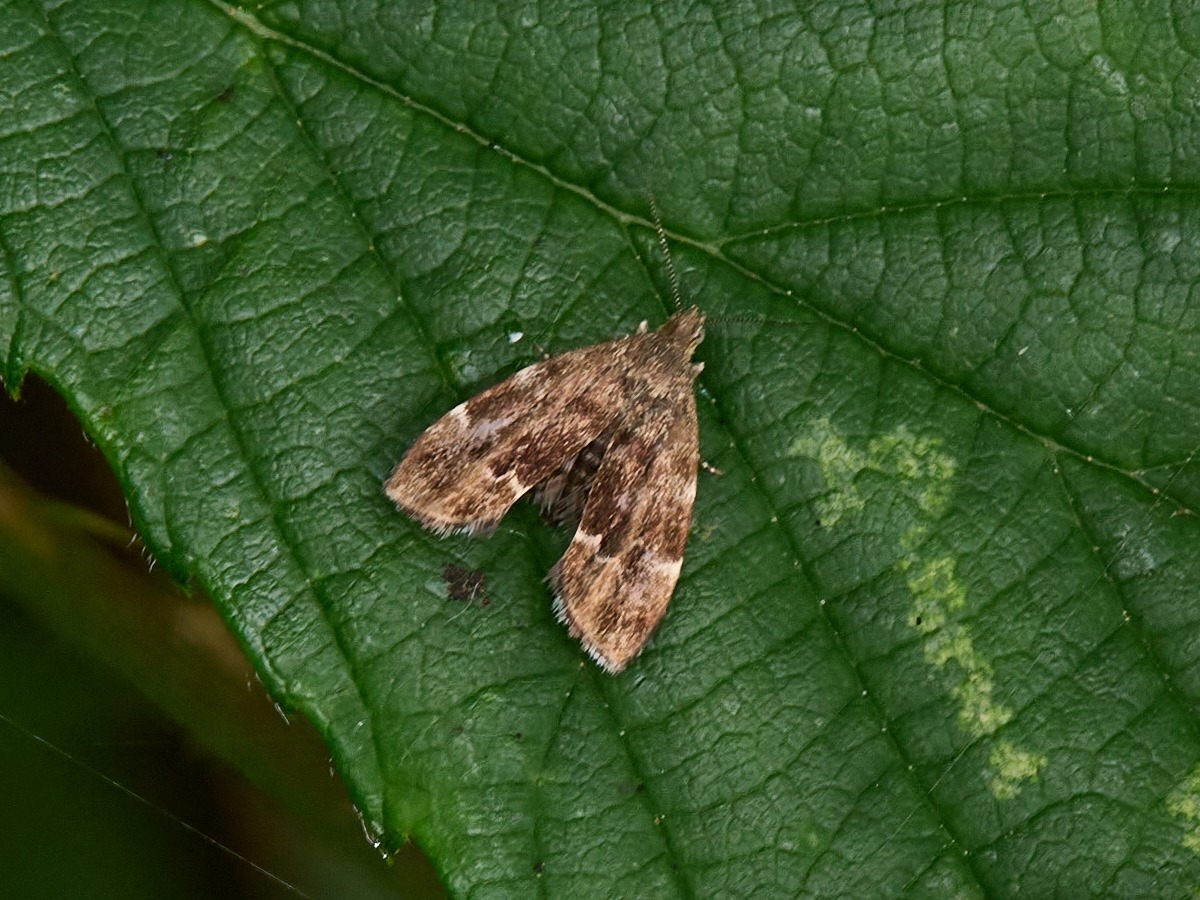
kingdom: Animalia
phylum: Arthropoda
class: Insecta
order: Lepidoptera
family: Choreutidae
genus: Anthophila
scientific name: Anthophila fabriciana
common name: Bredvinget nældevikler
